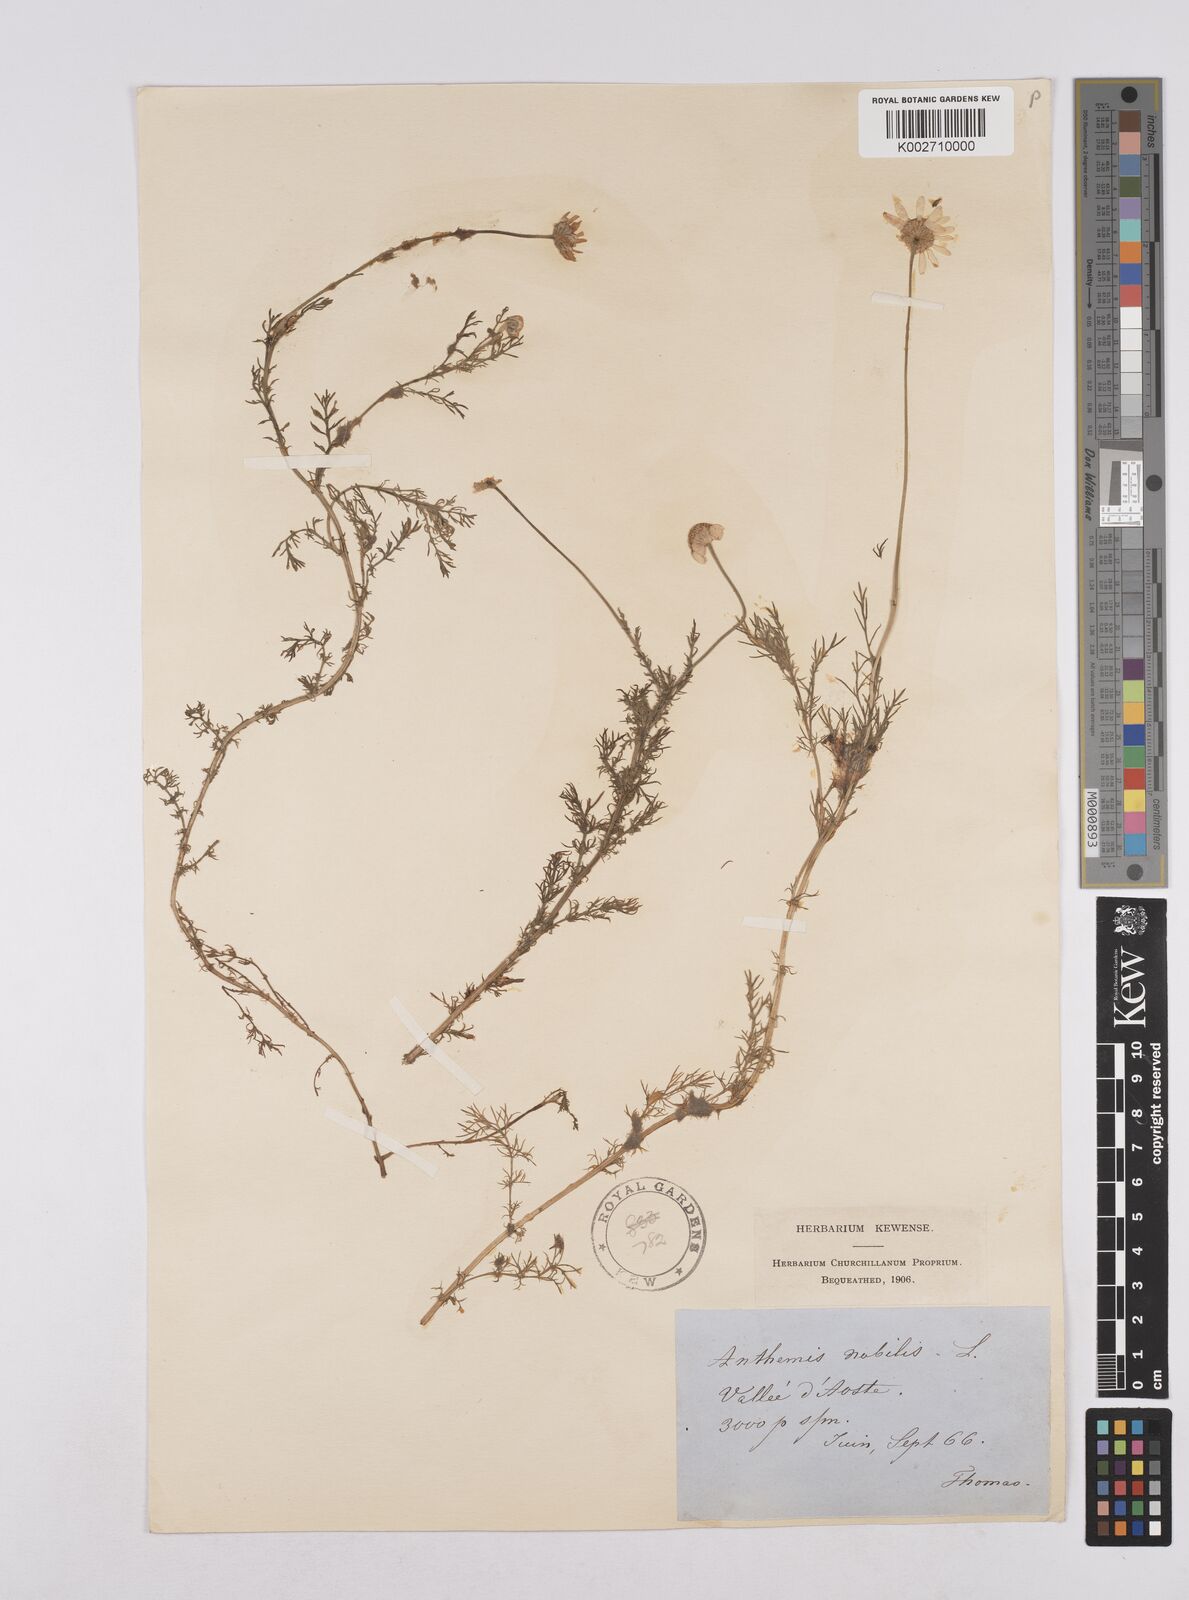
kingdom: Plantae
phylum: Tracheophyta
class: Magnoliopsida
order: Asterales
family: Asteraceae
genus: Chamaemelum
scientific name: Chamaemelum nobile
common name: Roman chamomile
